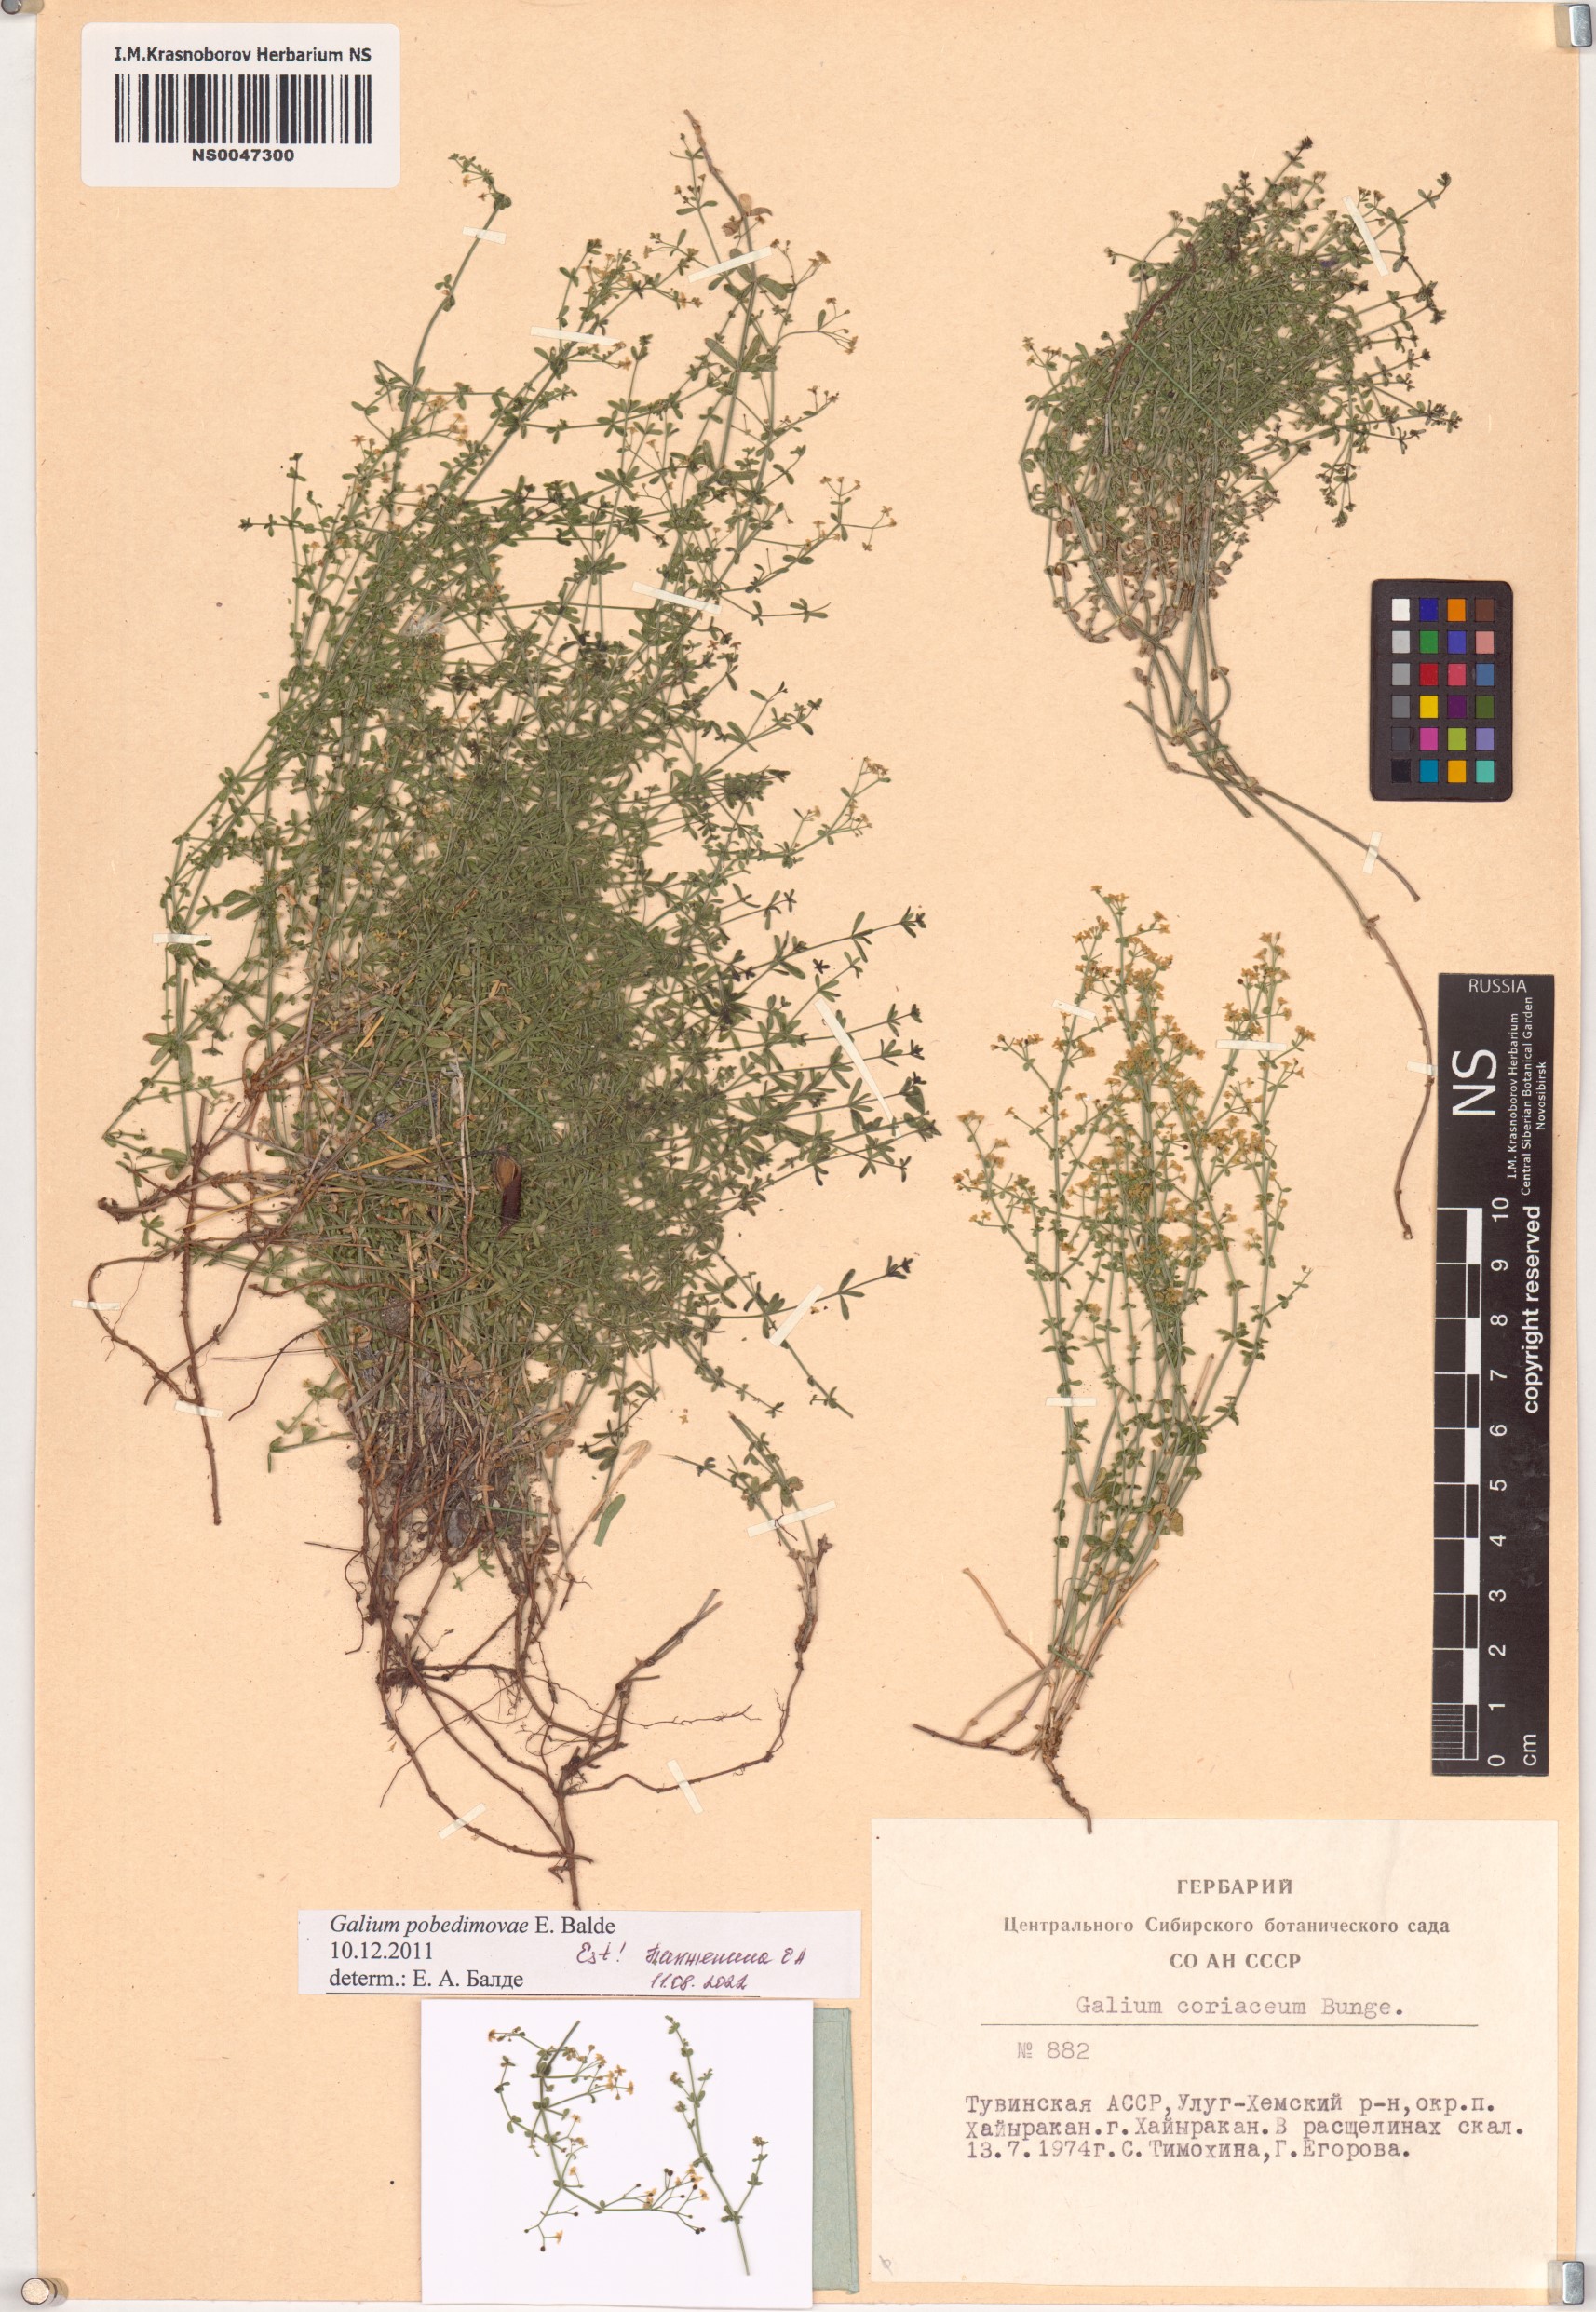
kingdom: Plantae
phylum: Tracheophyta
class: Magnoliopsida
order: Gentianales
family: Rubiaceae
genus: Galium
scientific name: Galium pobedimovae
